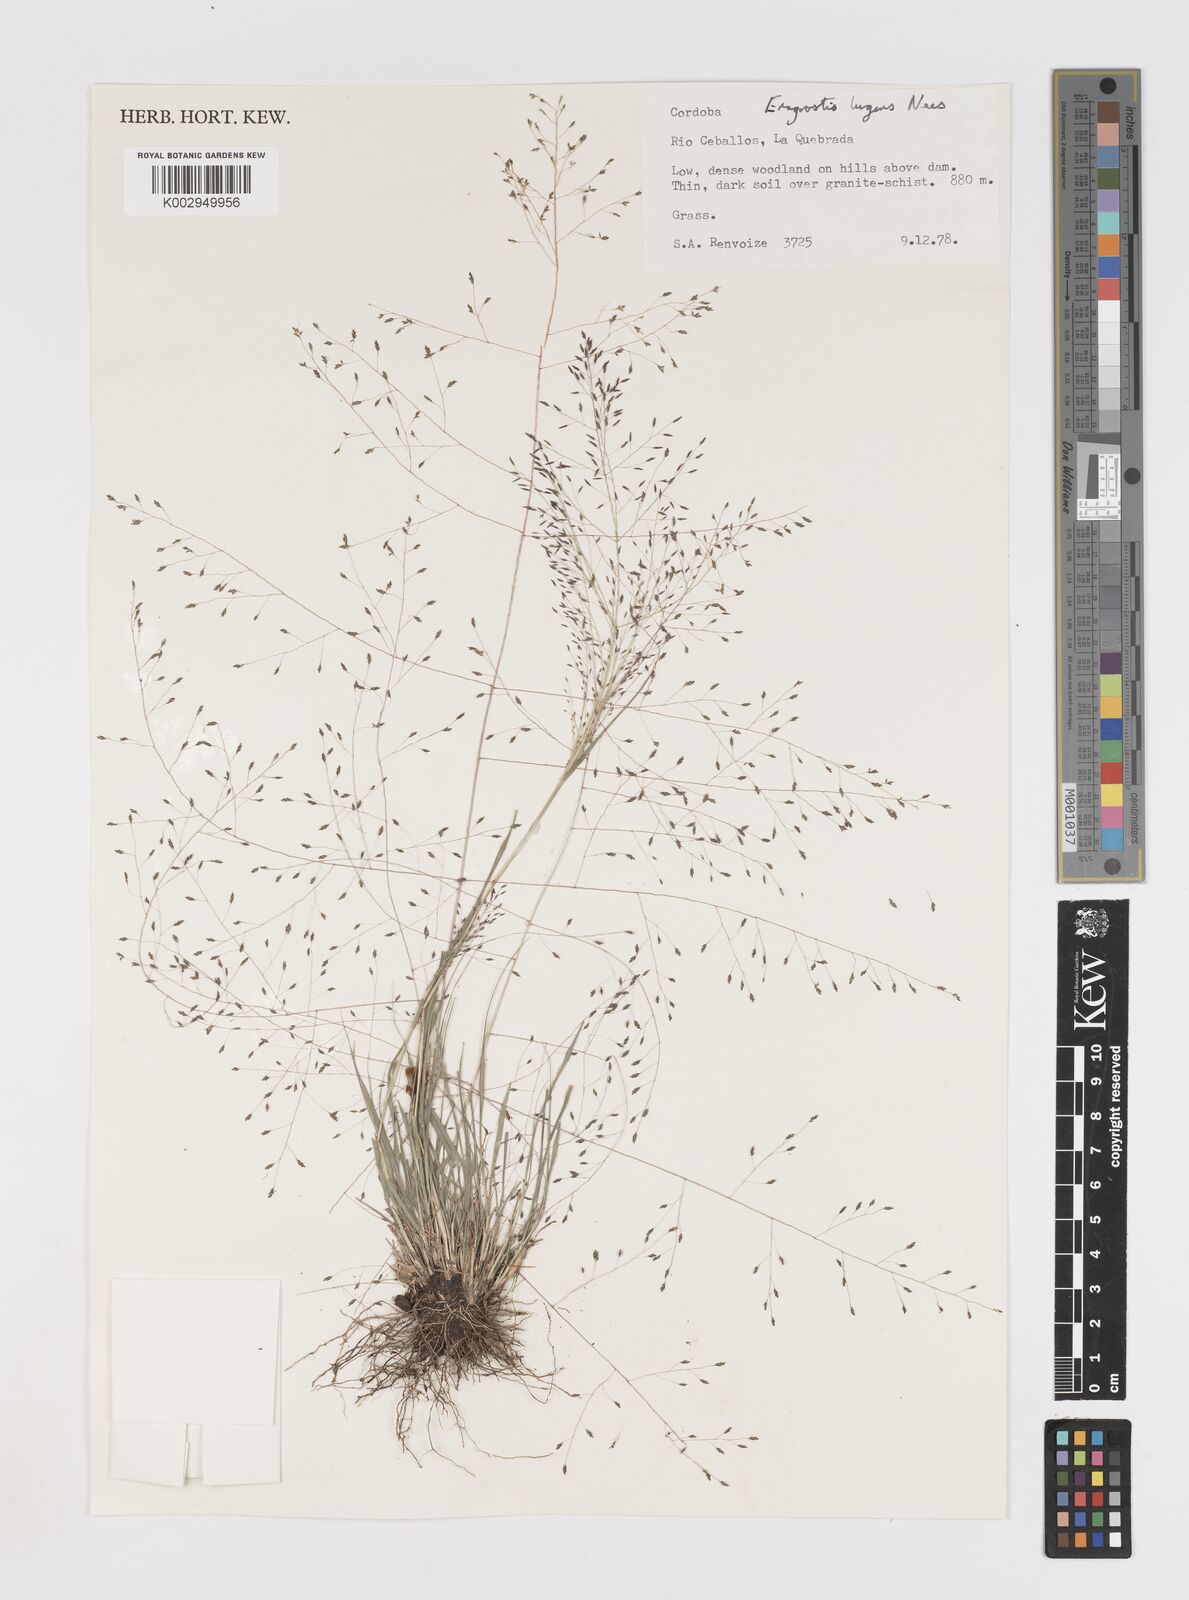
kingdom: Plantae
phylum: Tracheophyta
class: Liliopsida
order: Poales
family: Poaceae
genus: Eragrostis
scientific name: Eragrostis
